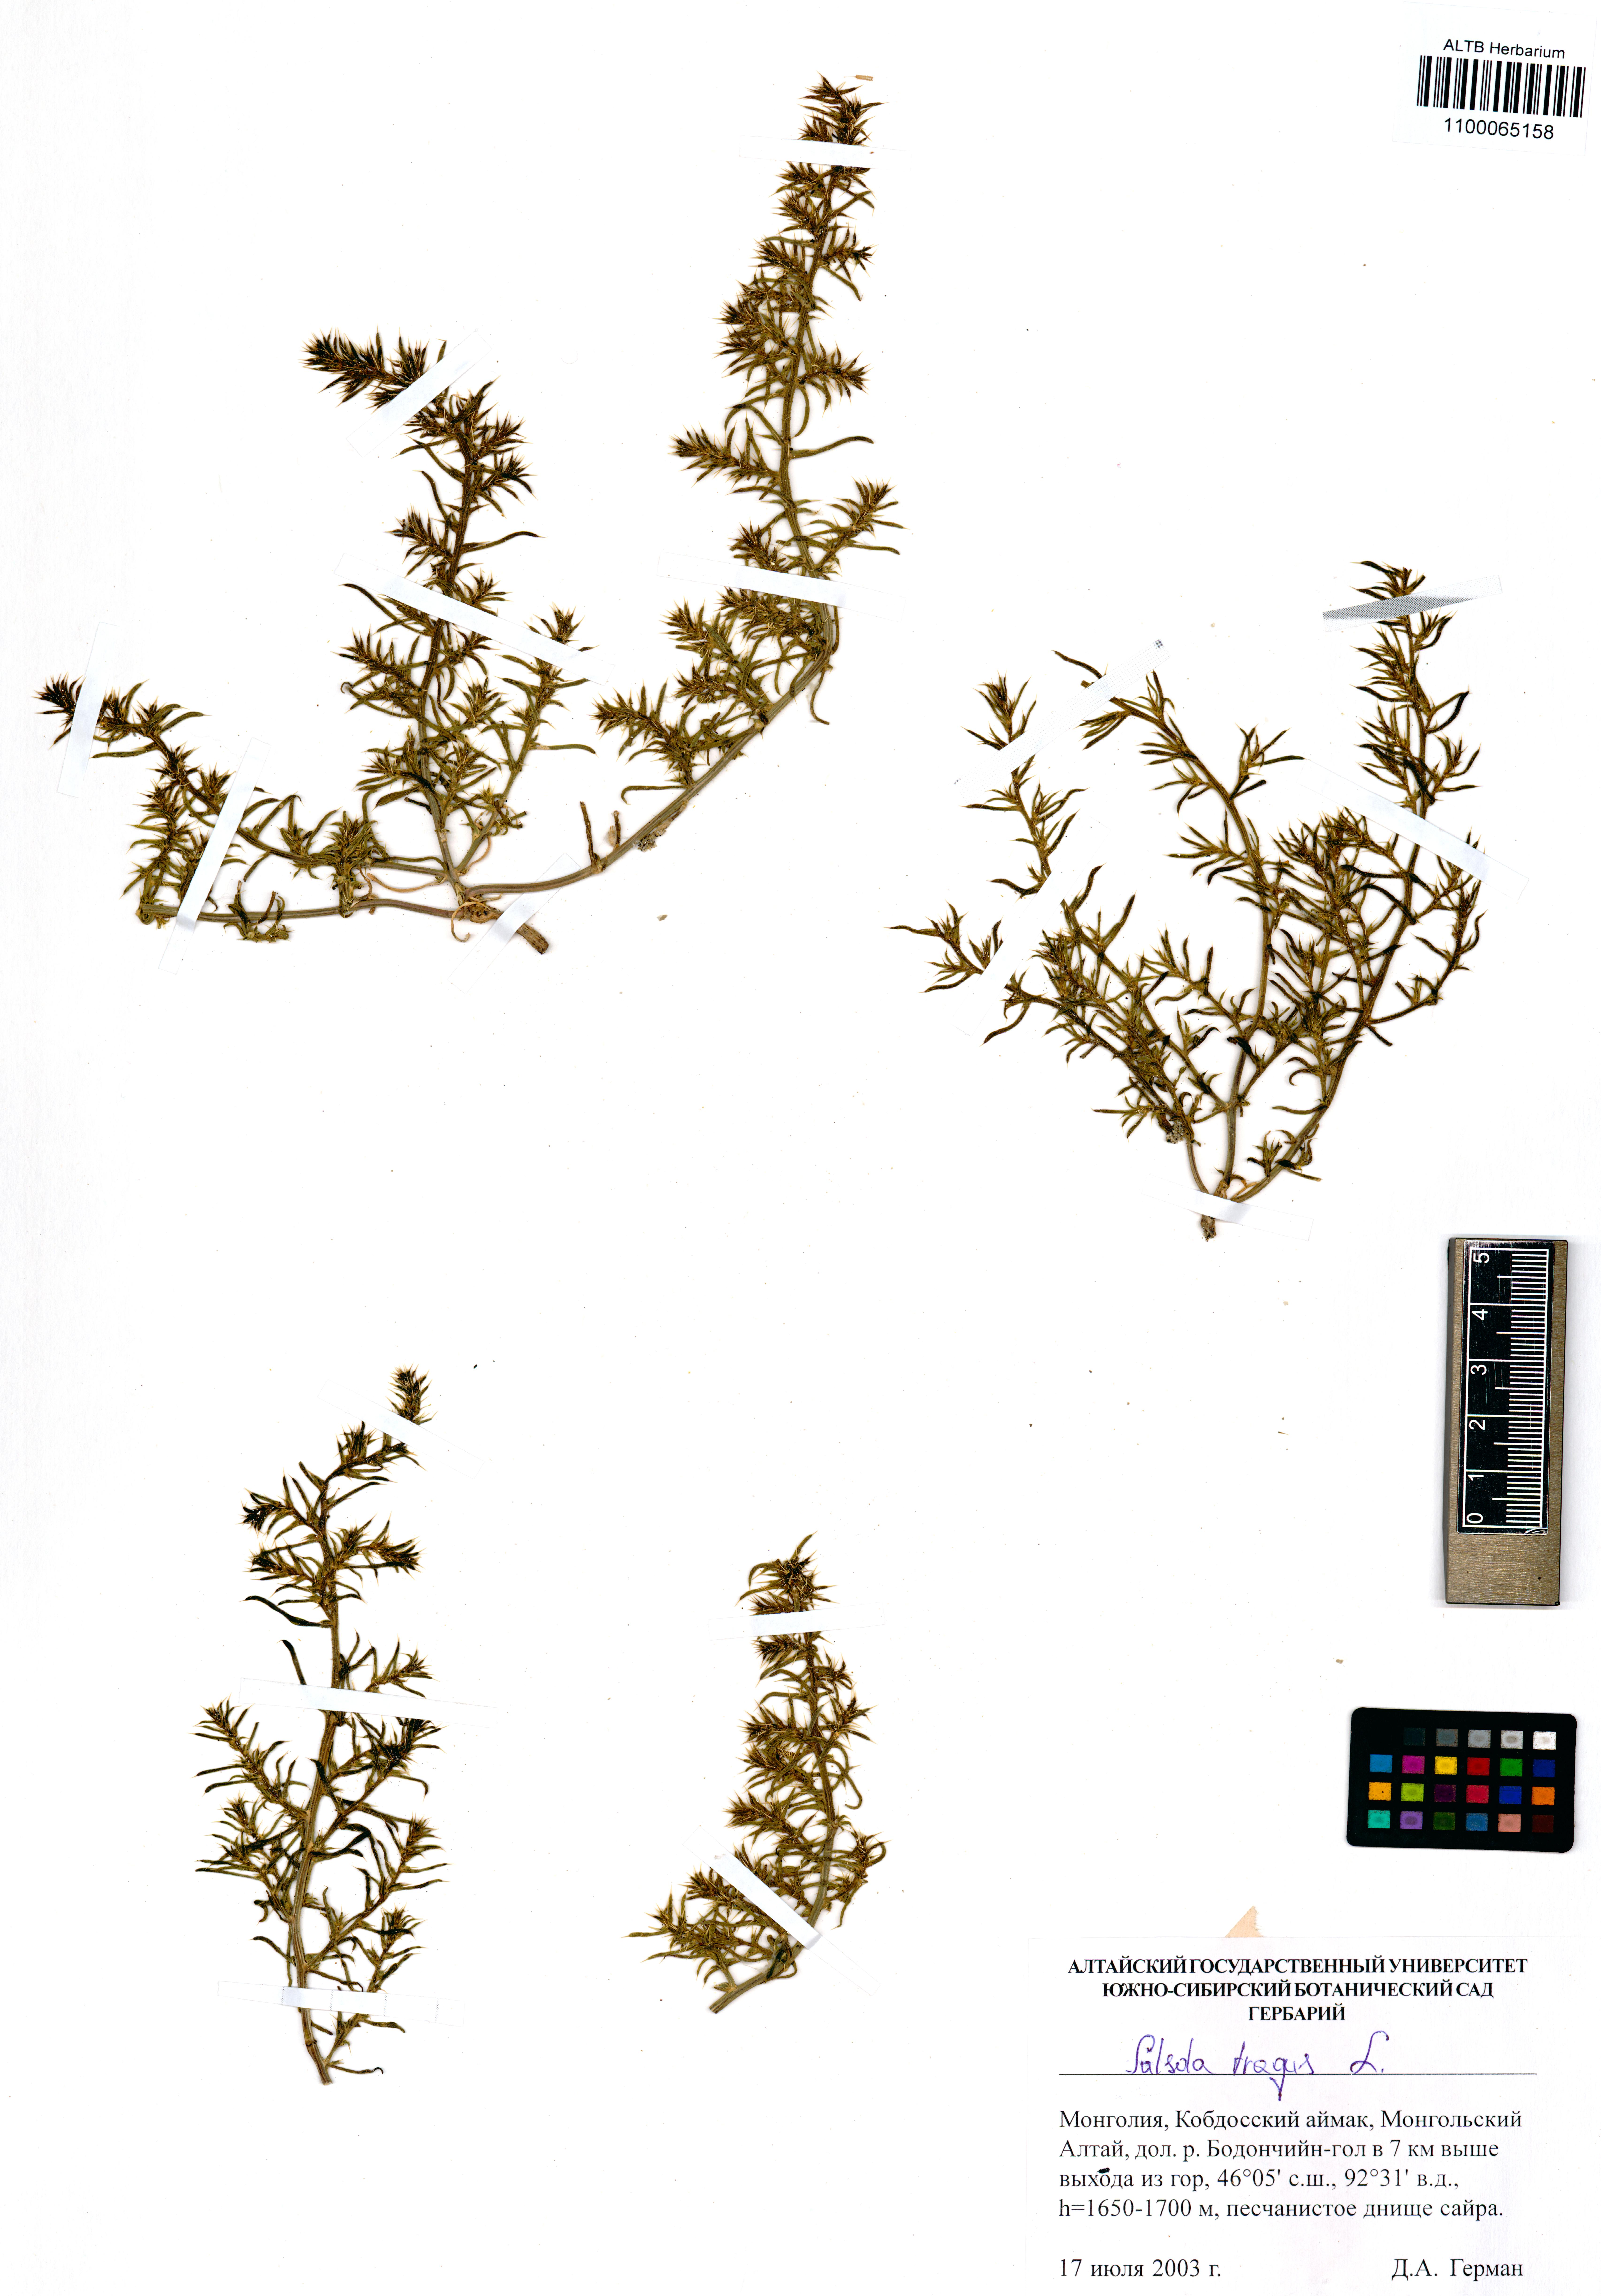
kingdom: Plantae
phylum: Tracheophyta
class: Magnoliopsida
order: Caryophyllales
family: Amaranthaceae
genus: Salsola
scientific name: Salsola tragus
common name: Prickly russian thistle
